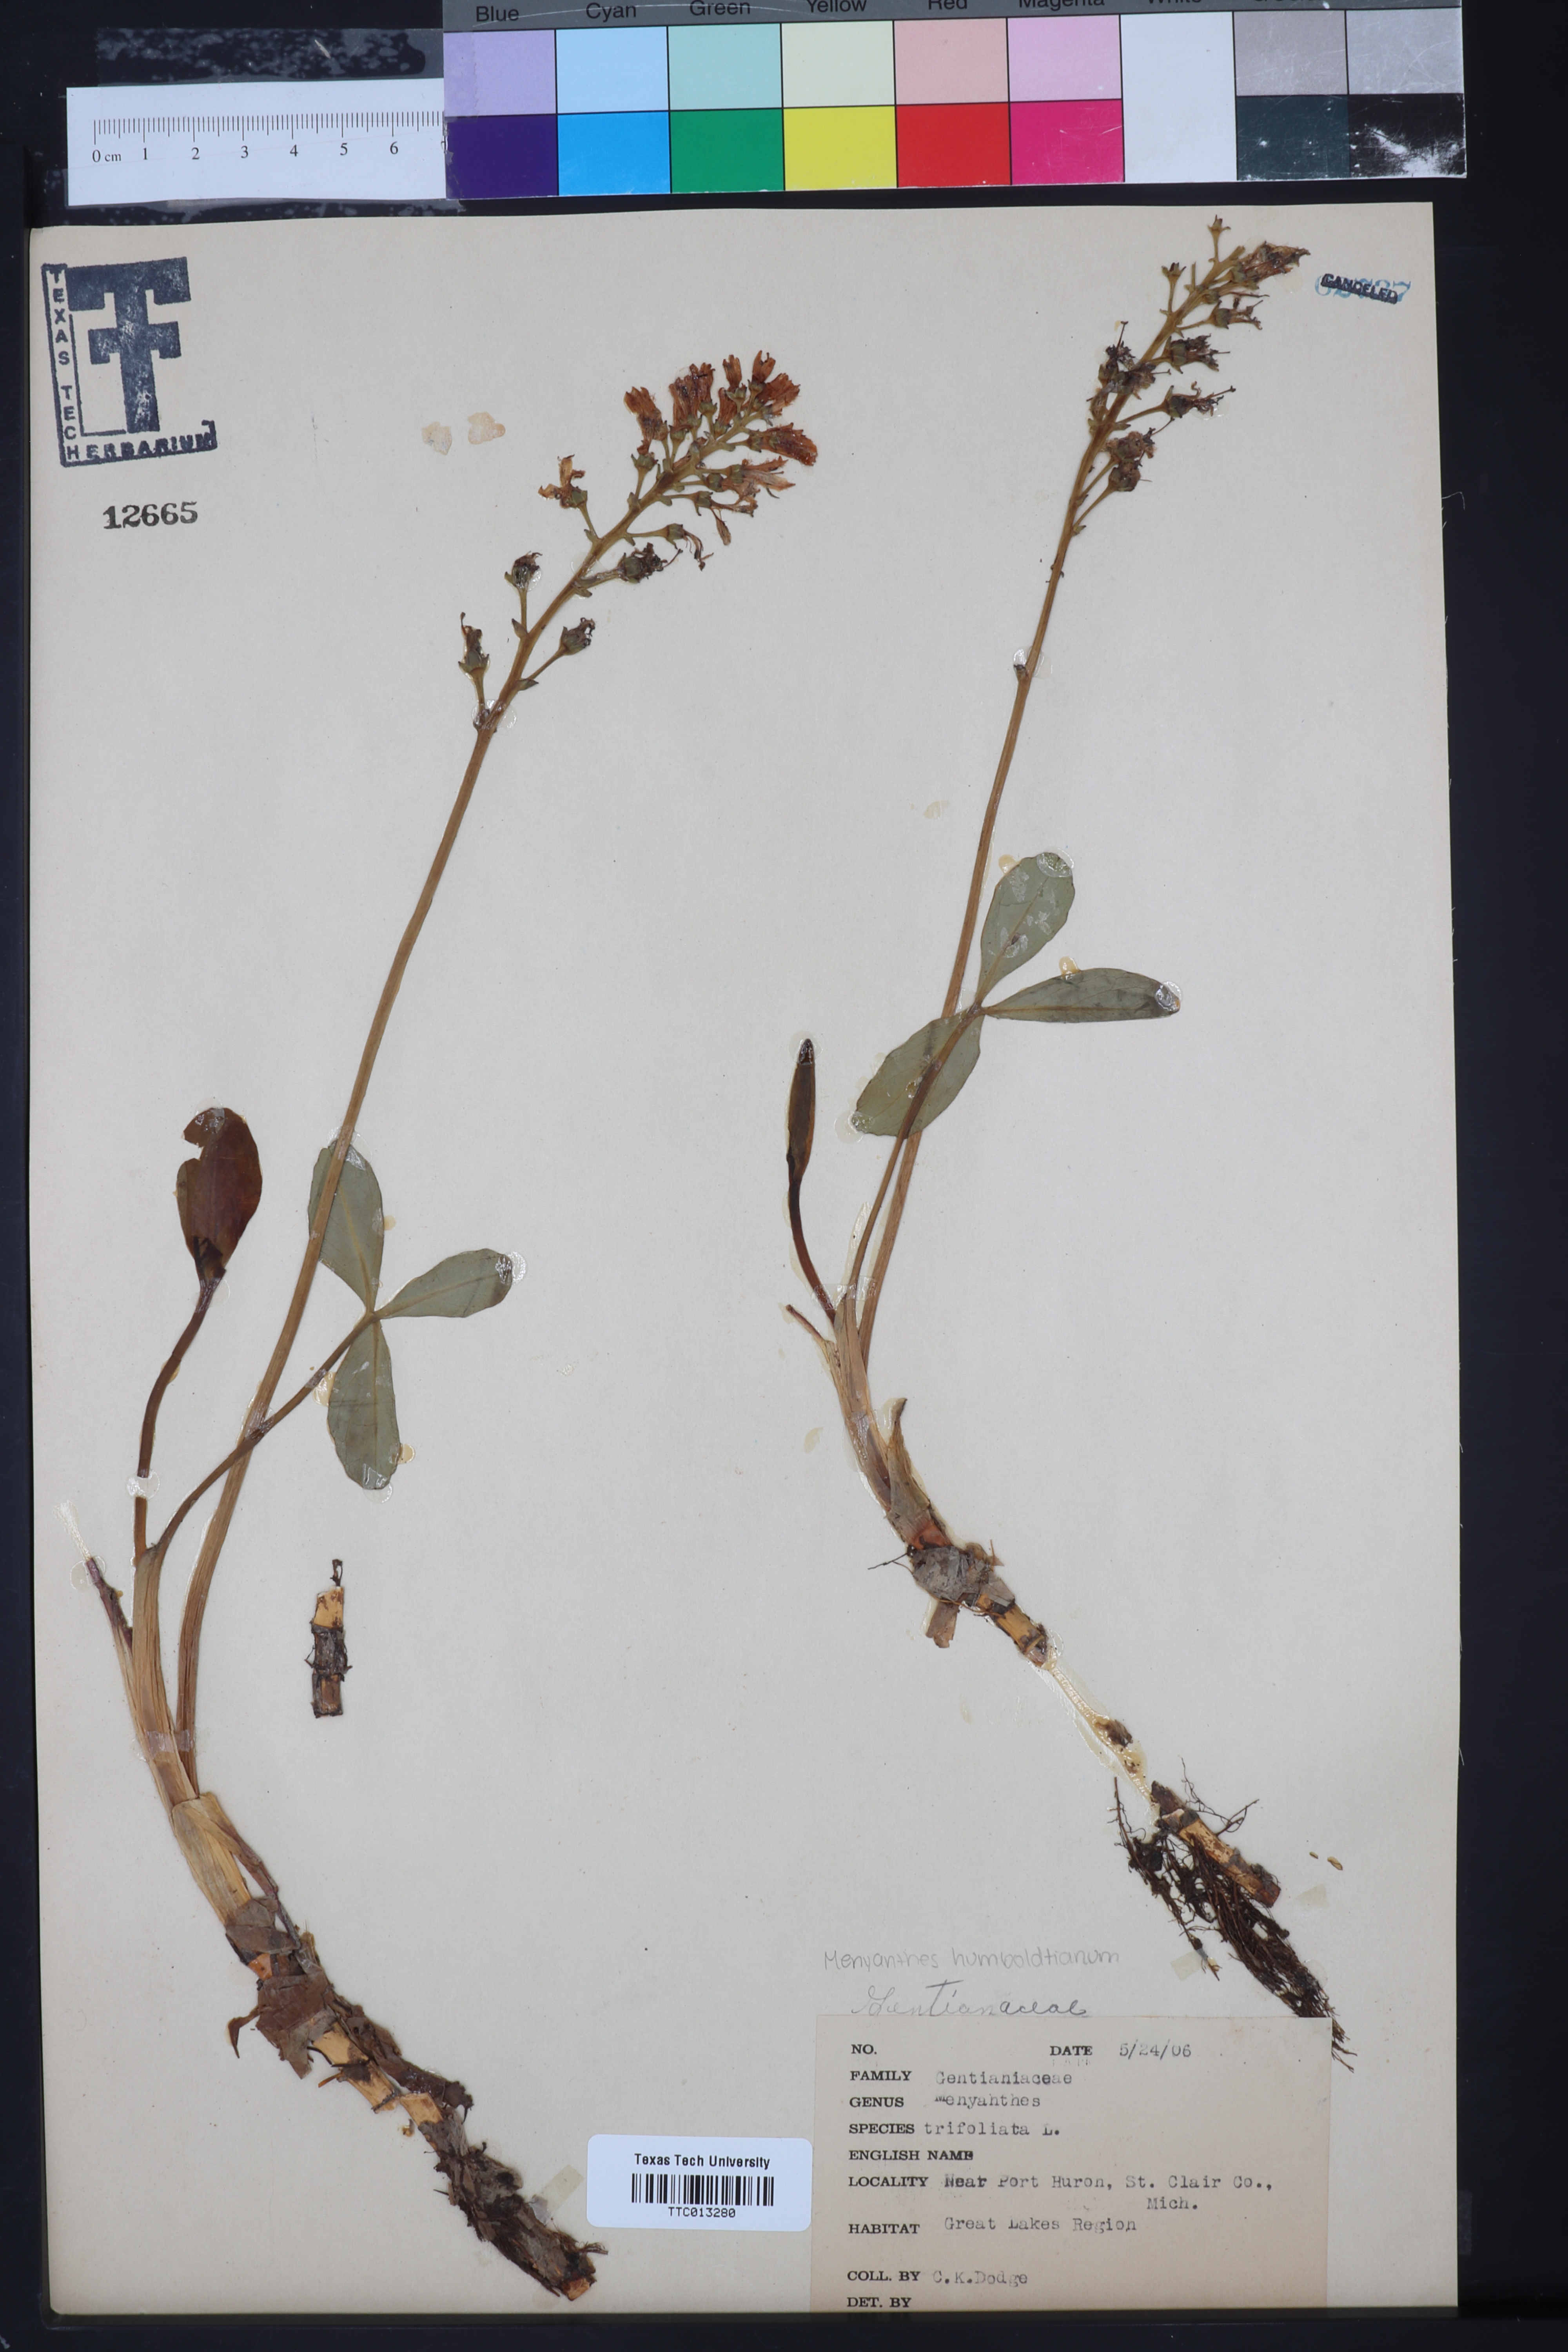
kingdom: Plantae
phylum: Tracheophyta
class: Magnoliopsida
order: Asterales
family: Menyanthaceae
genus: Menyanthes
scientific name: Menyanthes trifoliata
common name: Bogbean
